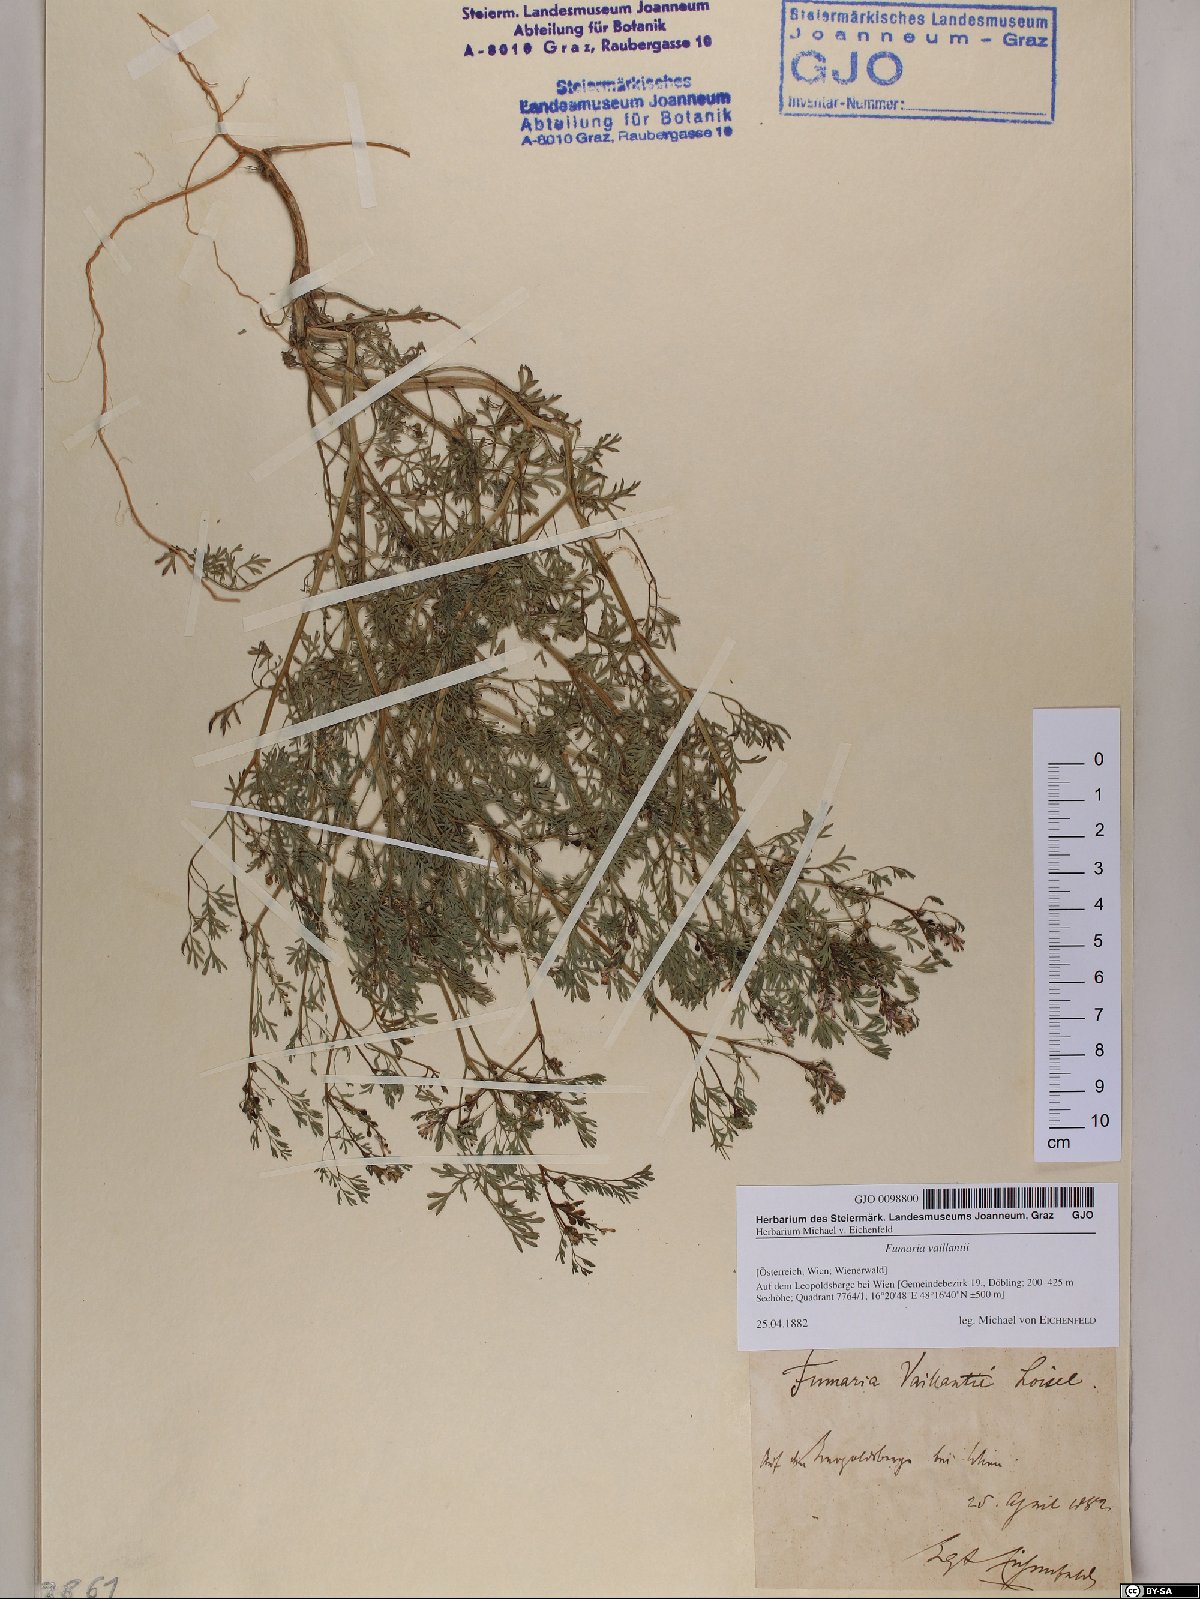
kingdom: Plantae
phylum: Tracheophyta
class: Magnoliopsida
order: Ranunculales
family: Papaveraceae
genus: Fumaria
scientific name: Fumaria vaillantii
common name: Few-flowered fumitory
